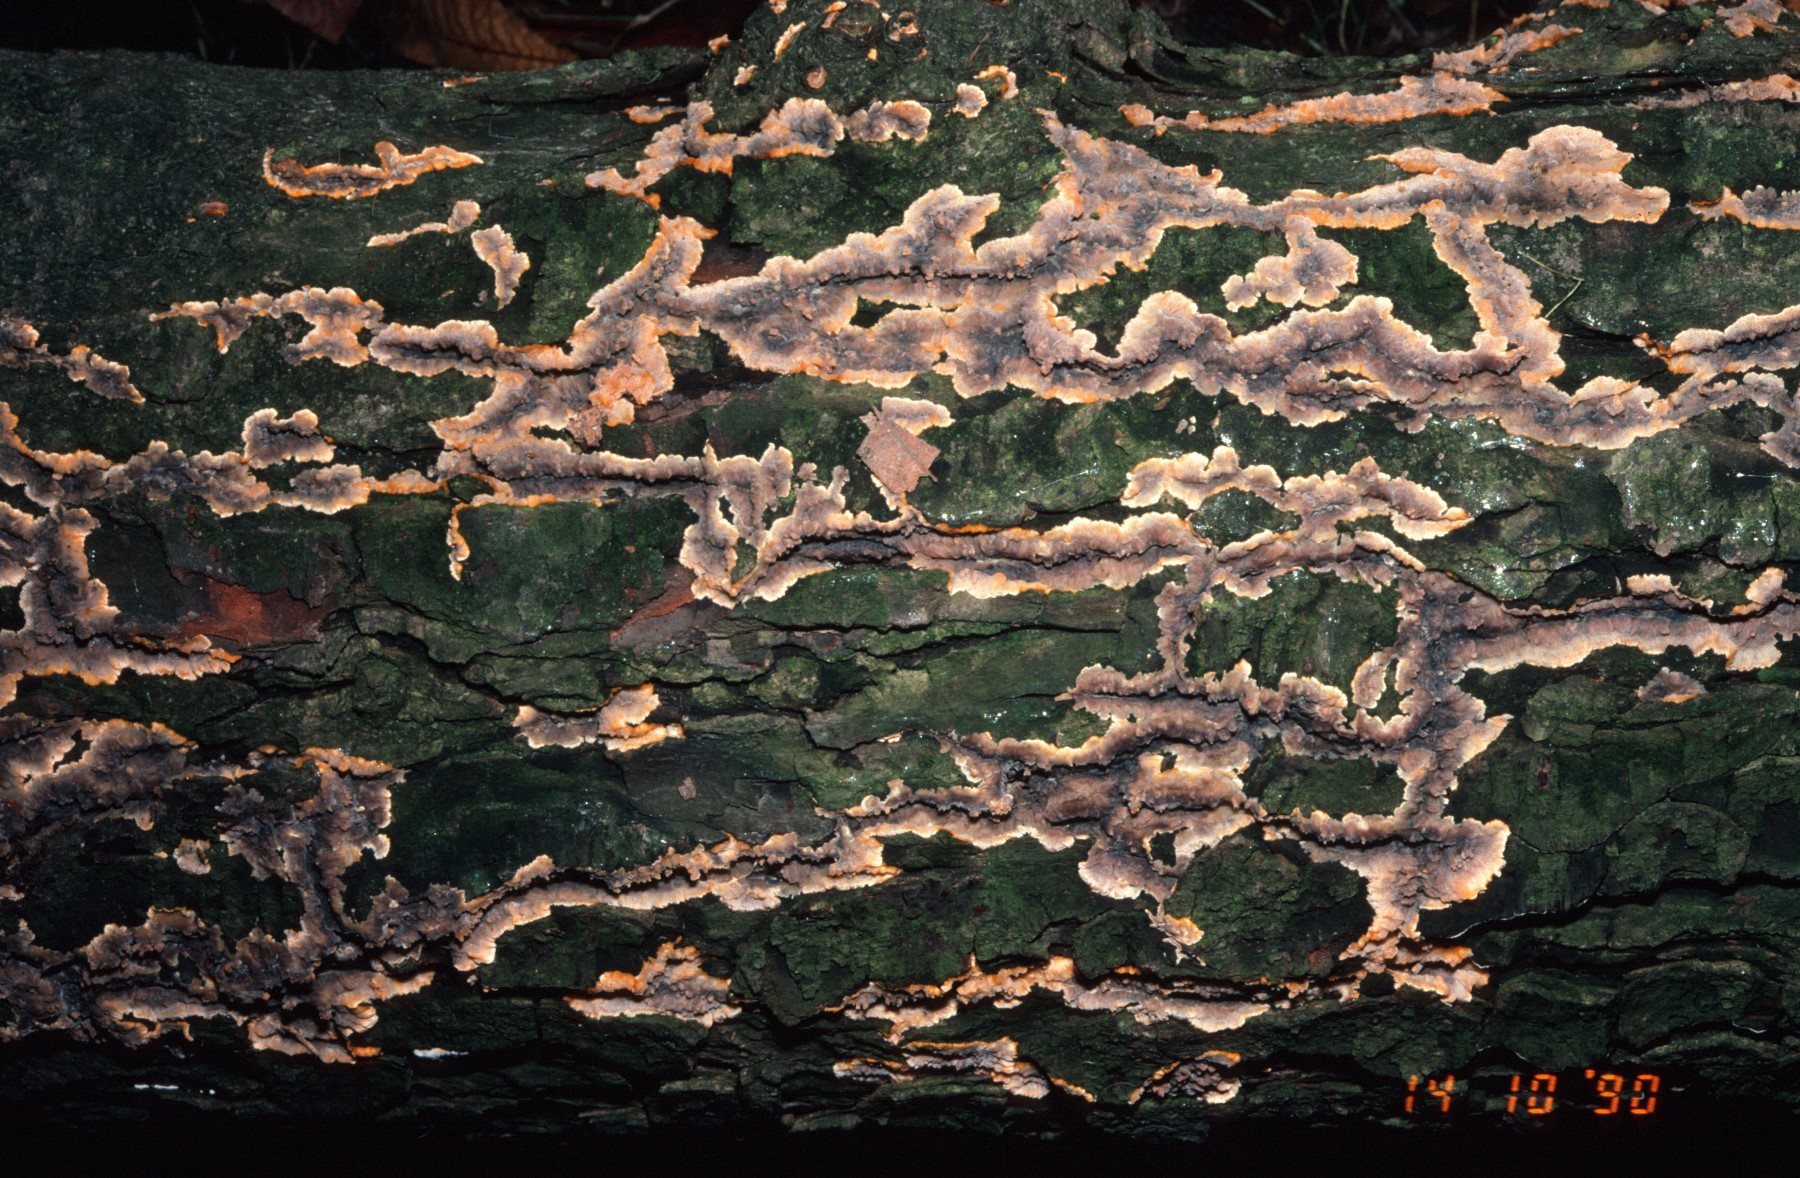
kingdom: Fungi
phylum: Basidiomycota
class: Agaricomycetes
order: Polyporales
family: Meruliaceae
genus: Phlebia
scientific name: Phlebia radiata
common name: stråle-åresvamp
